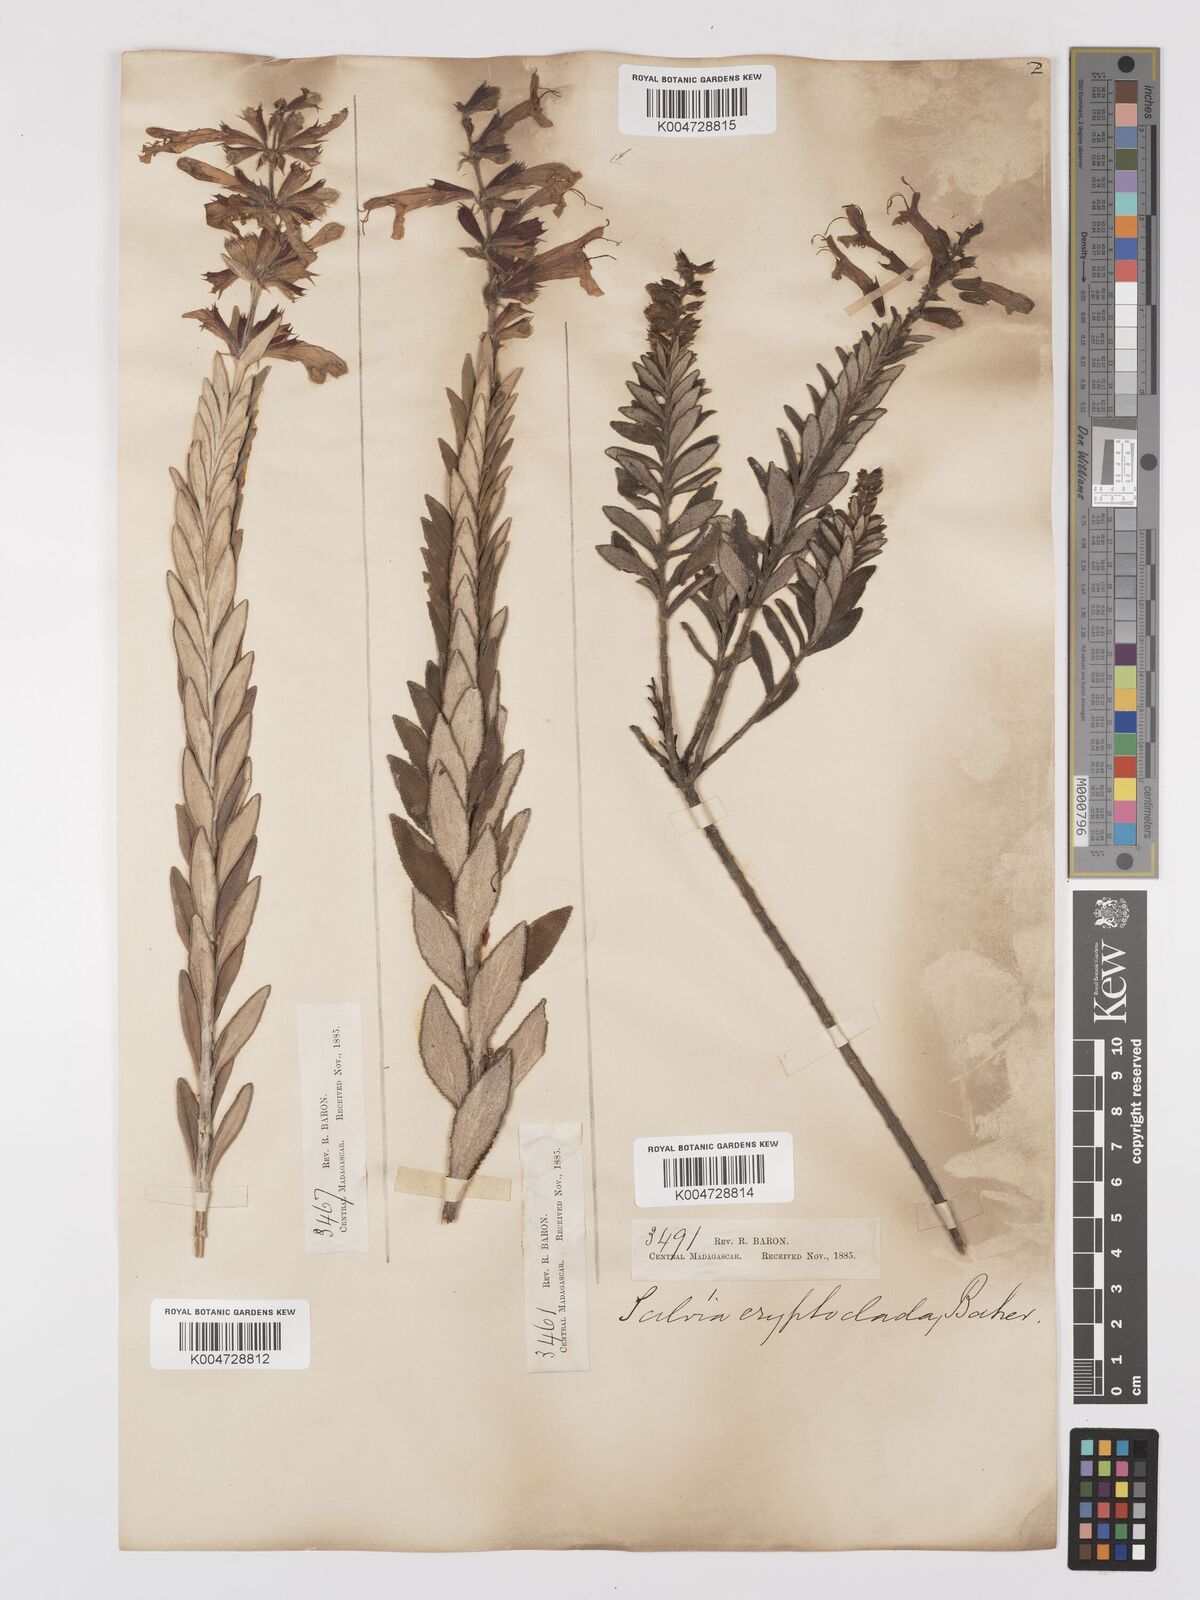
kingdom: Plantae
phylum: Tracheophyta
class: Magnoliopsida
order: Lamiales
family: Lamiaceae
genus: Salvia
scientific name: Salvia cryptoclada
